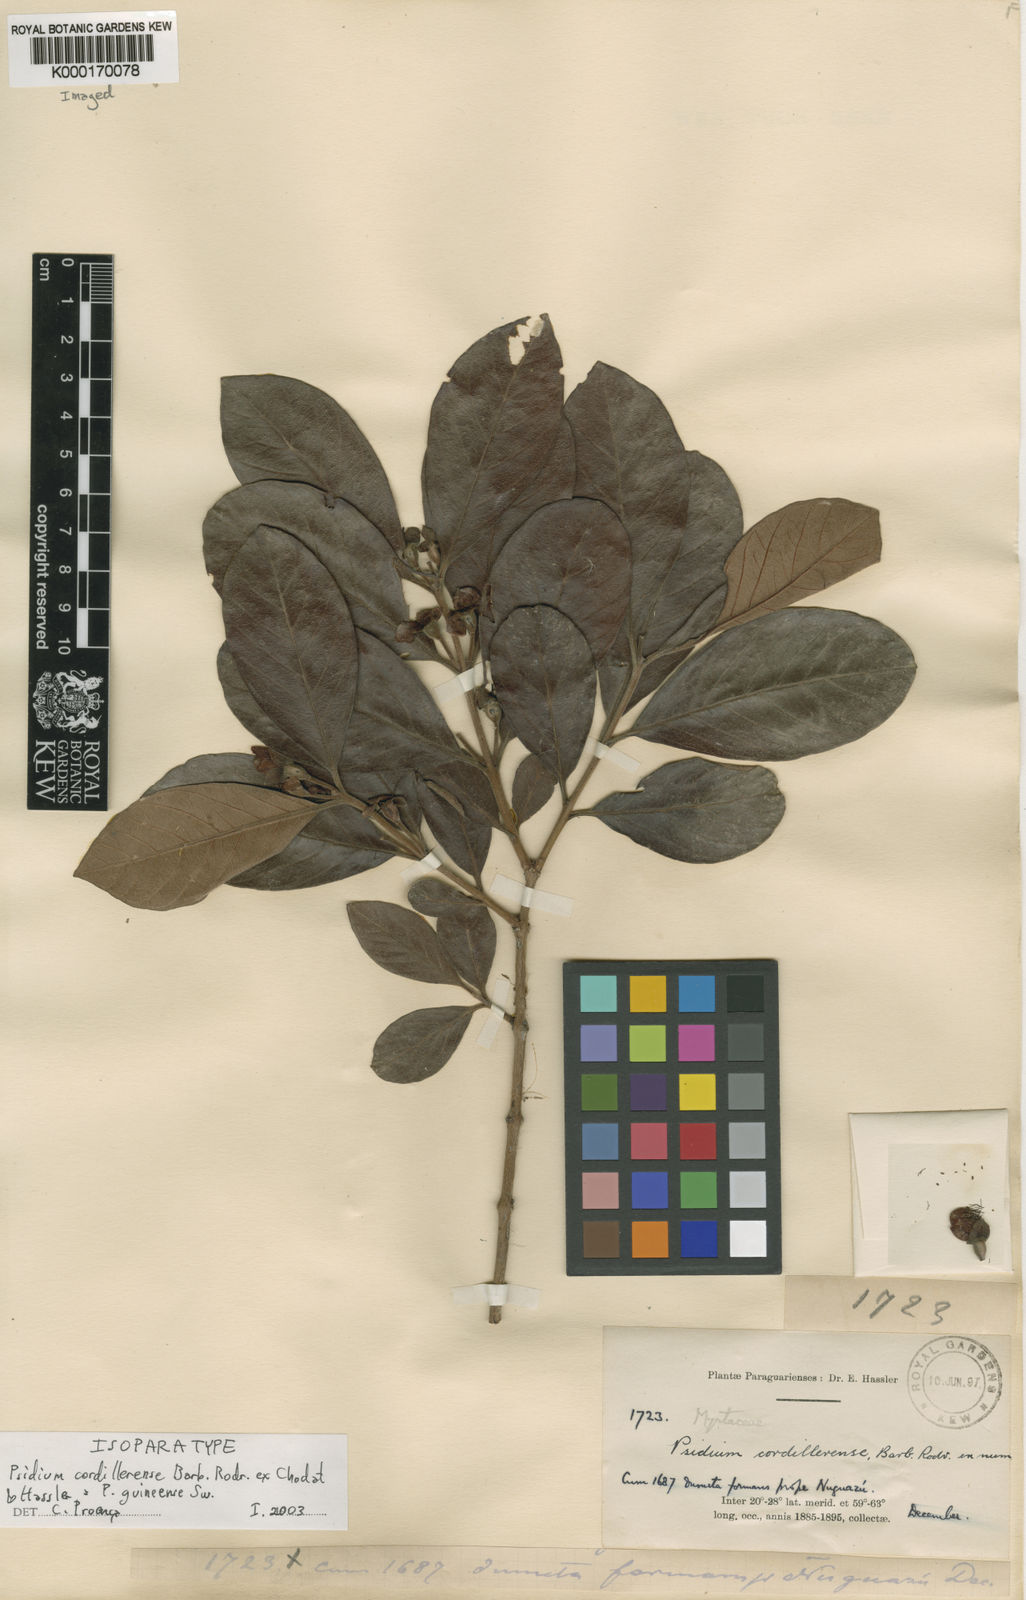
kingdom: Plantae
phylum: Tracheophyta
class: Magnoliopsida
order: Myrtales
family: Myrtaceae
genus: Psidium
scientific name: Psidium guineense
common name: Brazilian guava
